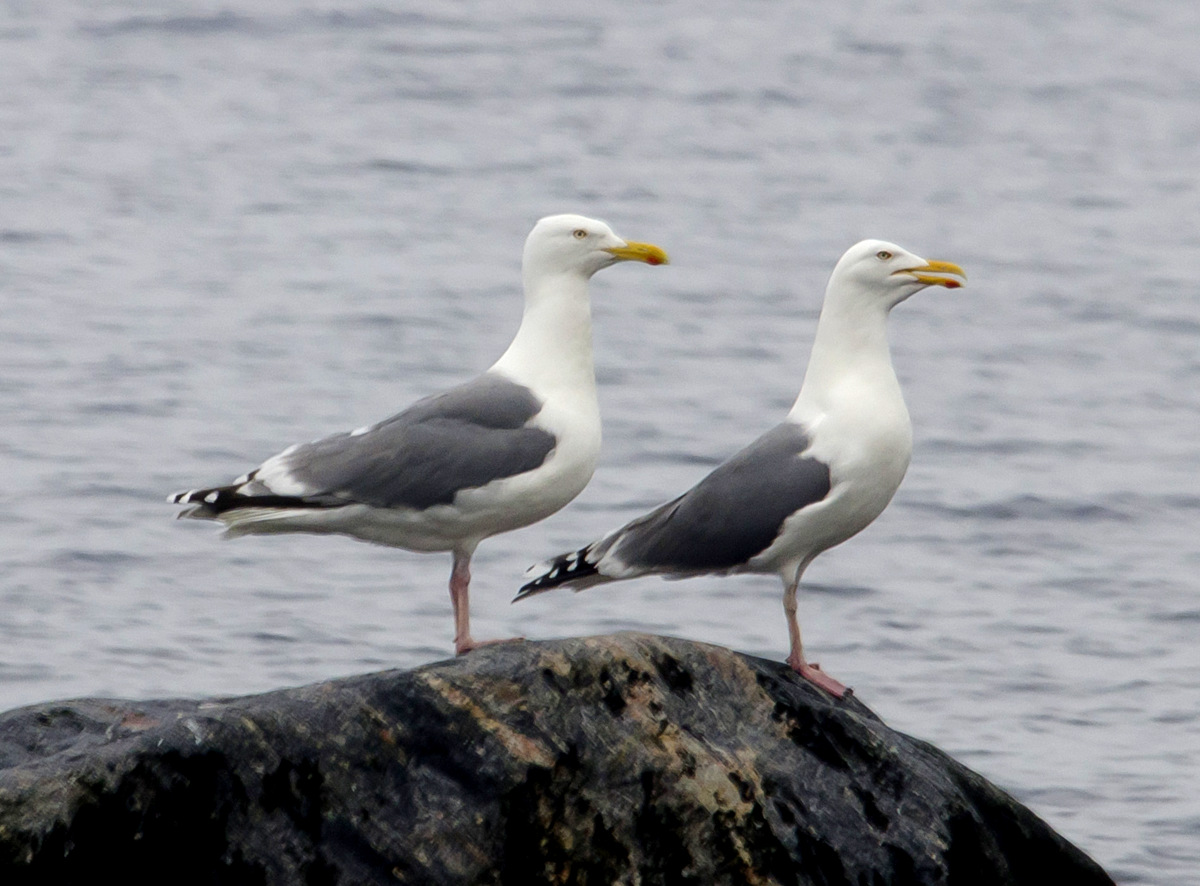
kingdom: Animalia
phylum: Chordata
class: Aves
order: Charadriiformes
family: Laridae
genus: Larus
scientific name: Larus marinus
